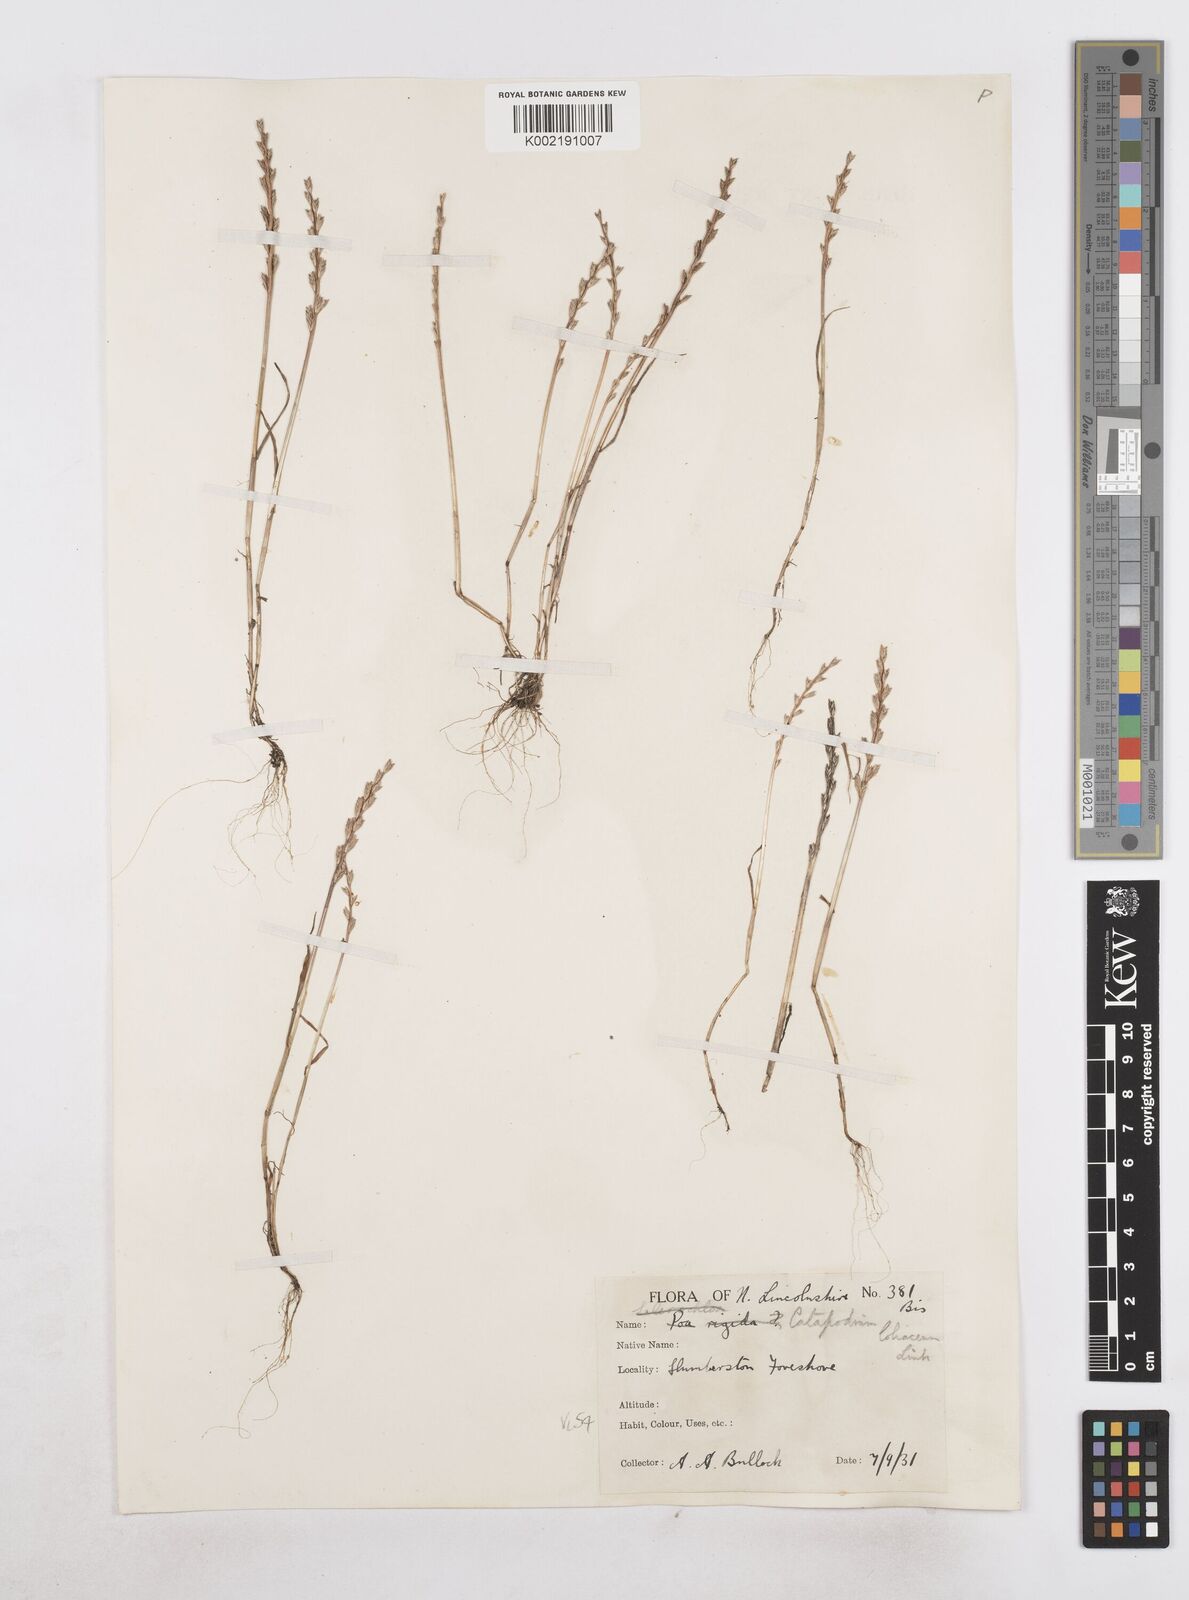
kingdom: Plantae
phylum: Tracheophyta
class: Liliopsida
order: Poales
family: Poaceae
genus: Catapodium
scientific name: Catapodium marinum
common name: Sea fern-grass
